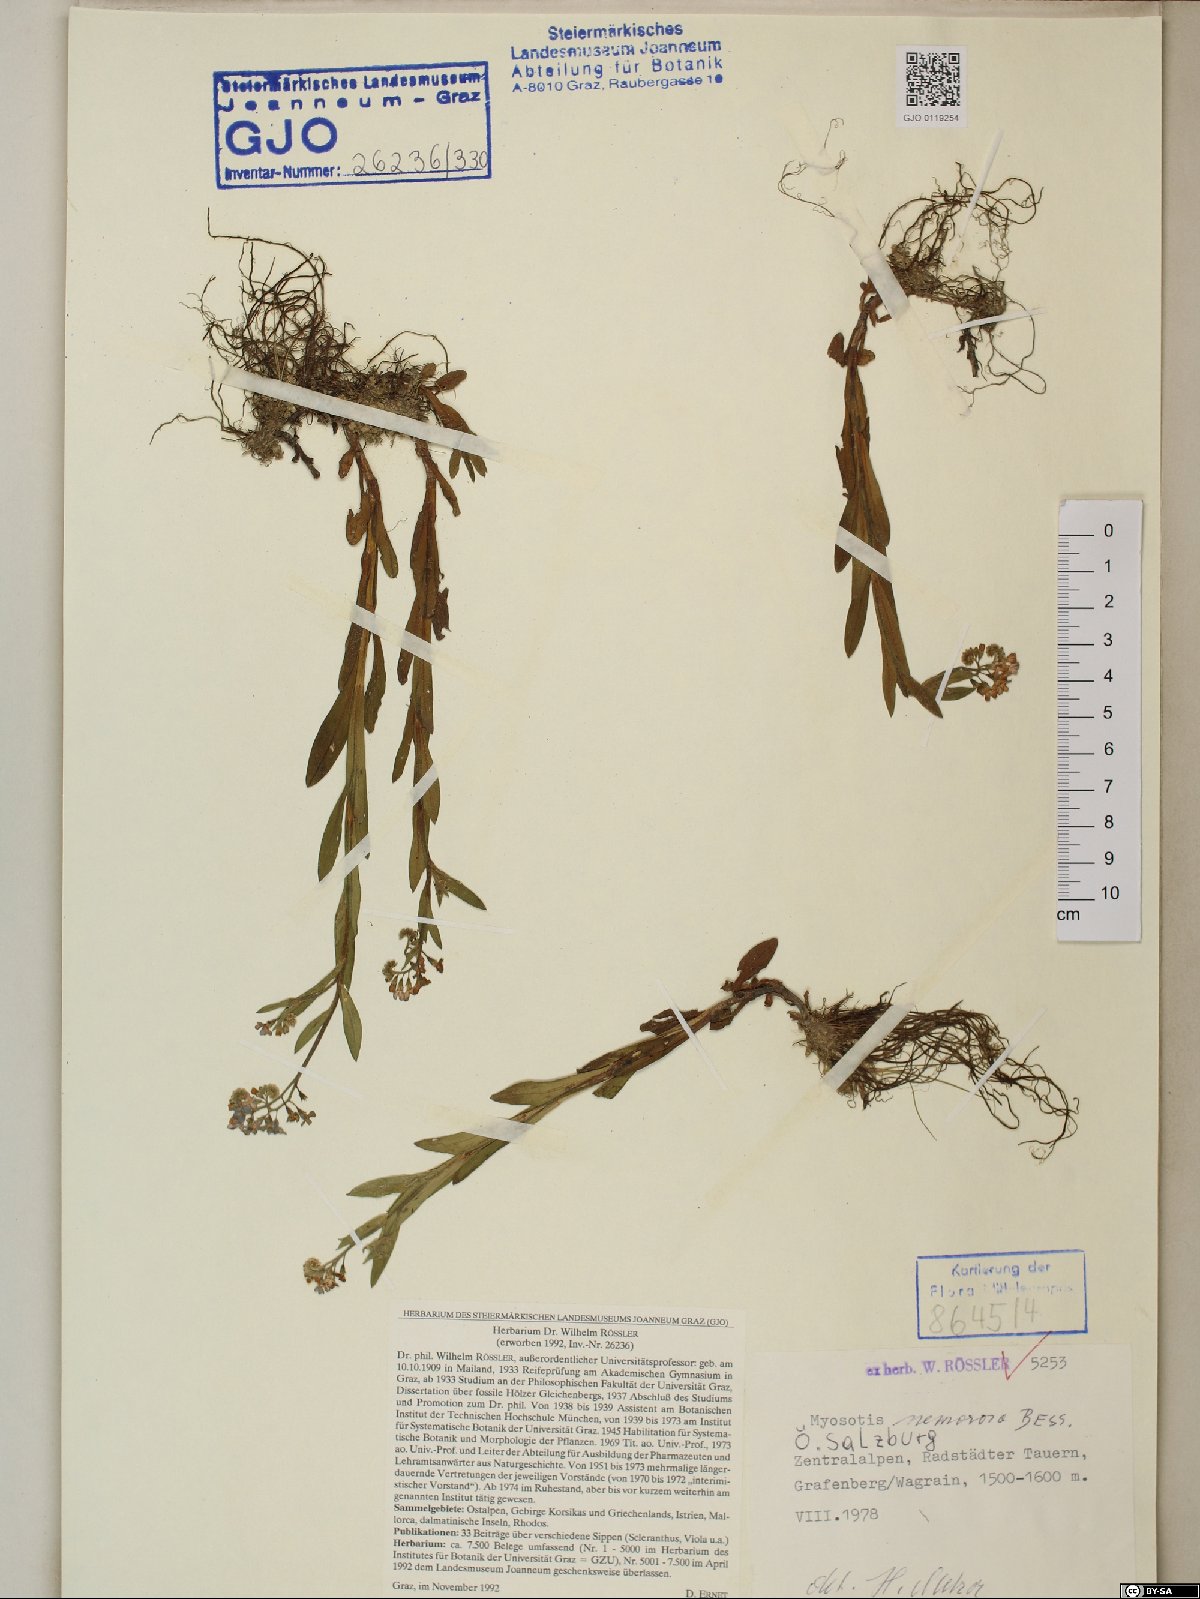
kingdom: Plantae
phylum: Tracheophyta
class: Magnoliopsida
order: Boraginales
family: Boraginaceae
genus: Myosotis
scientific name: Myosotis nemorosa
